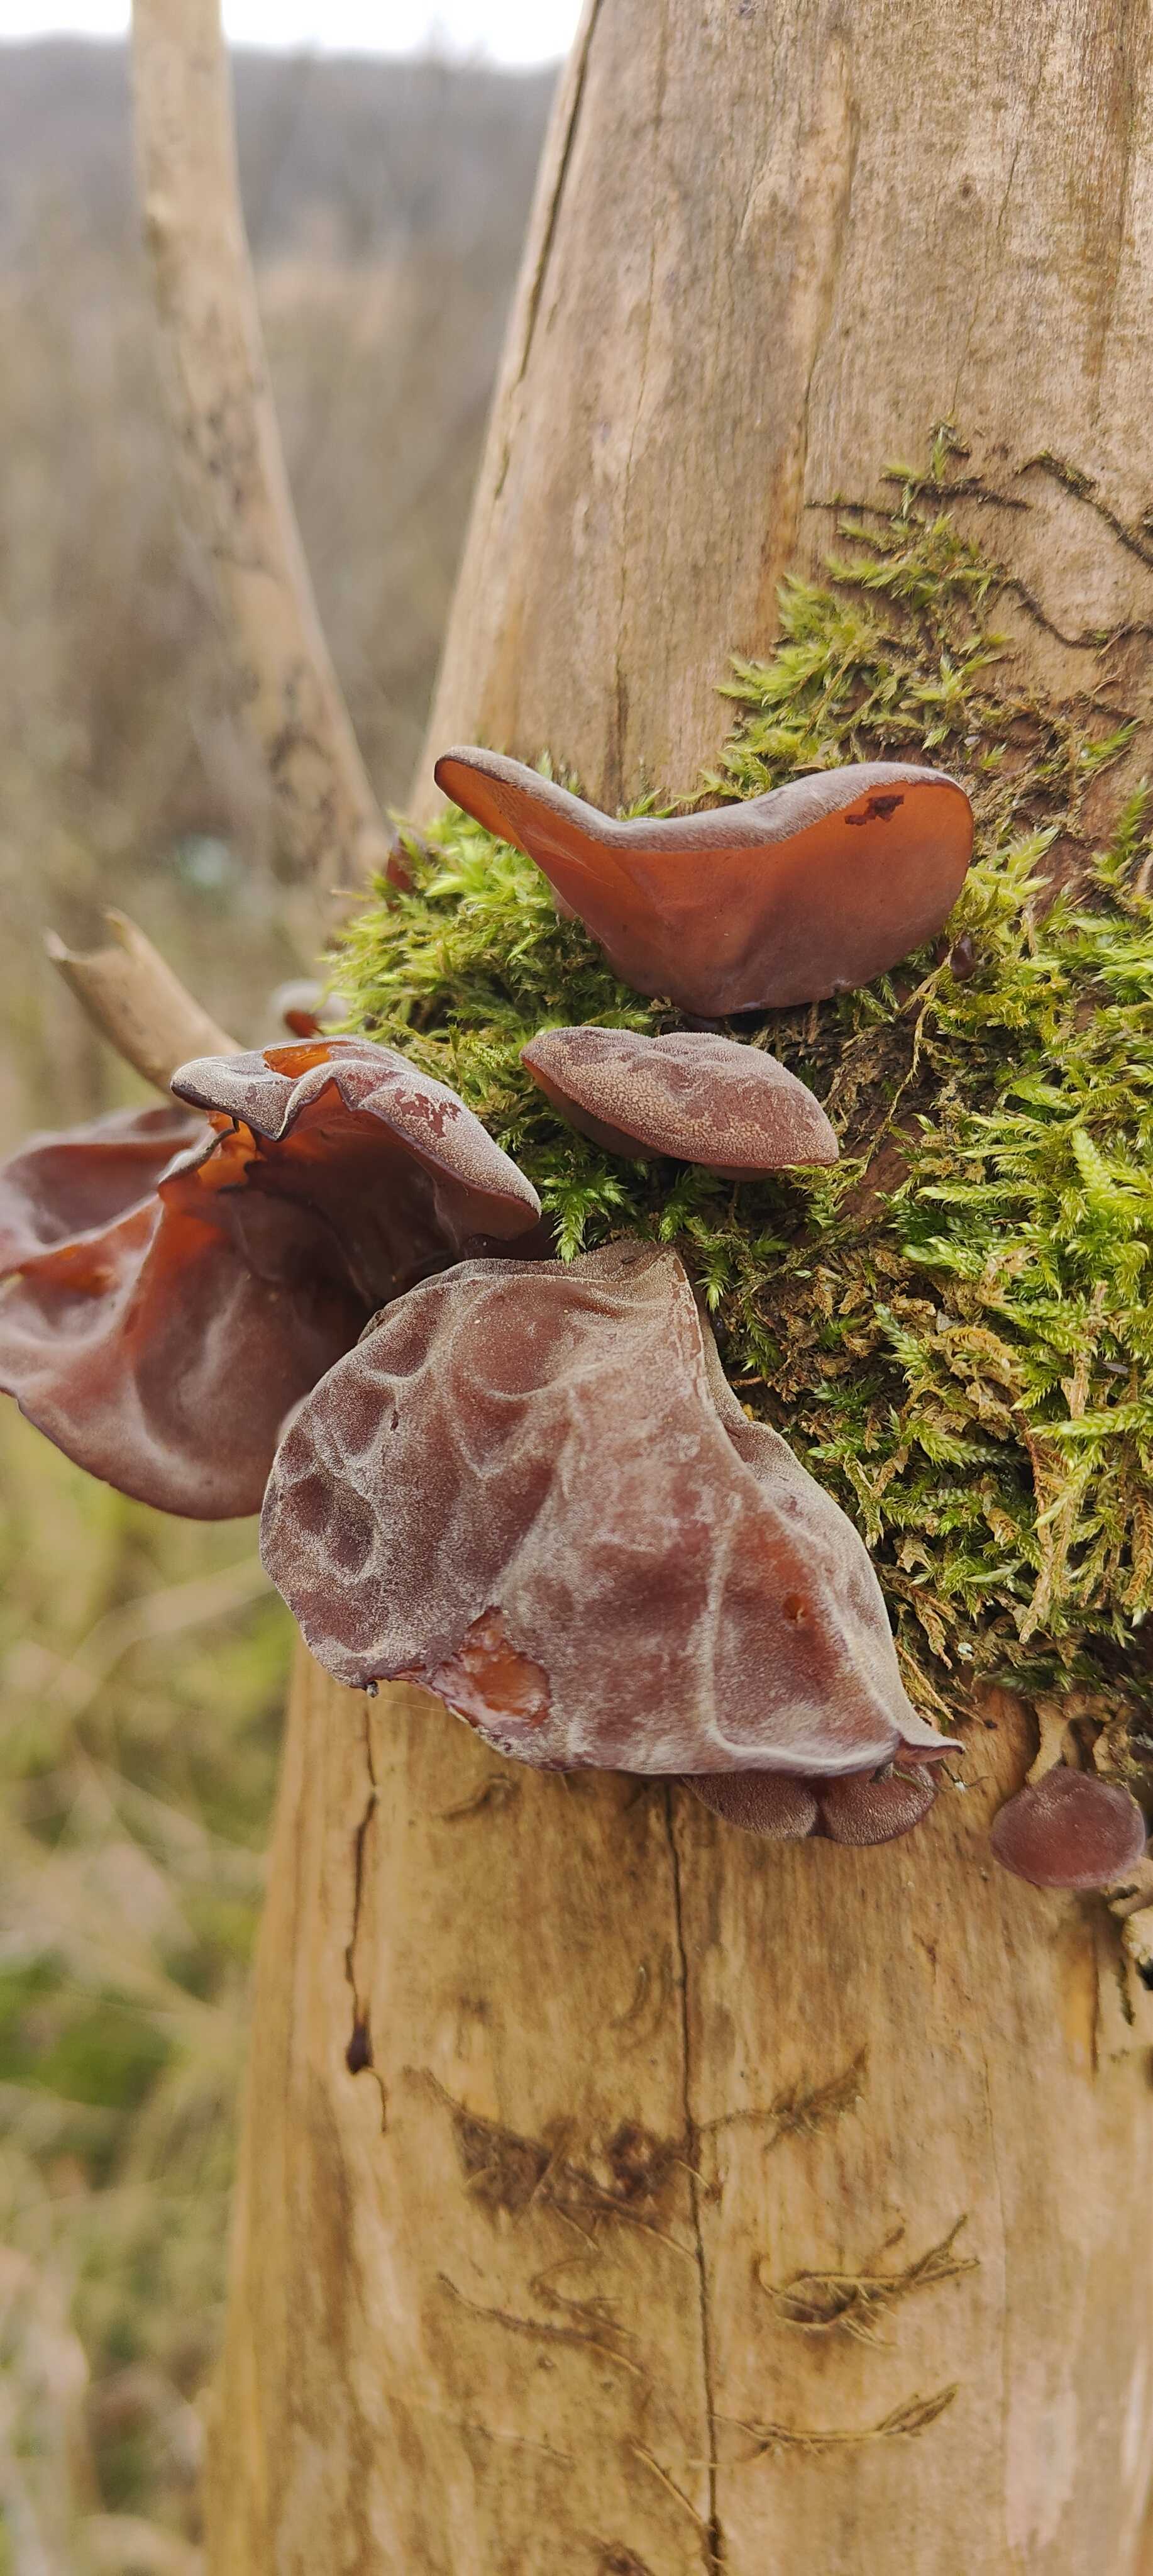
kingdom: Fungi
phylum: Basidiomycota
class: Agaricomycetes
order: Auriculariales
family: Auriculariaceae
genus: Auricularia
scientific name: Auricularia auricula-judae
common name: almindelig judasøre
